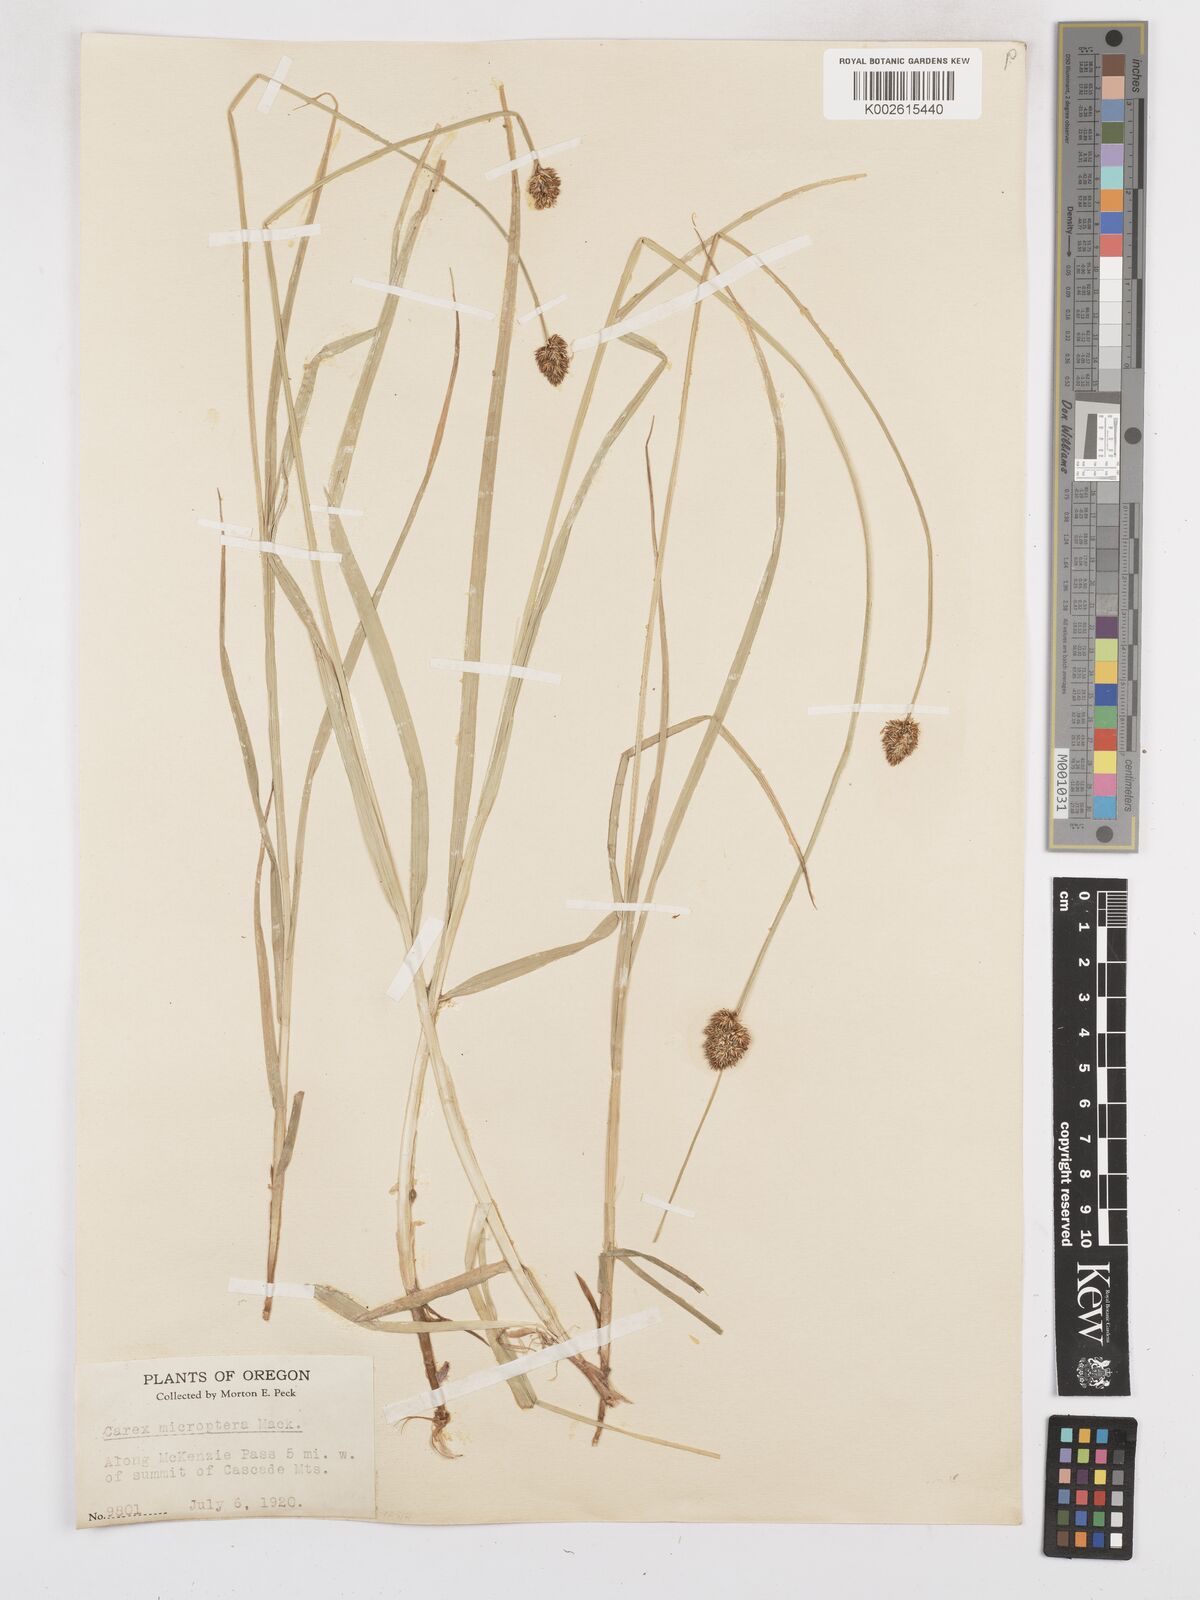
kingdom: Plantae
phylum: Tracheophyta
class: Liliopsida
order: Poales
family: Cyperaceae
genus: Carex
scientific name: Carex microptera
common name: Oval-headed sedge
